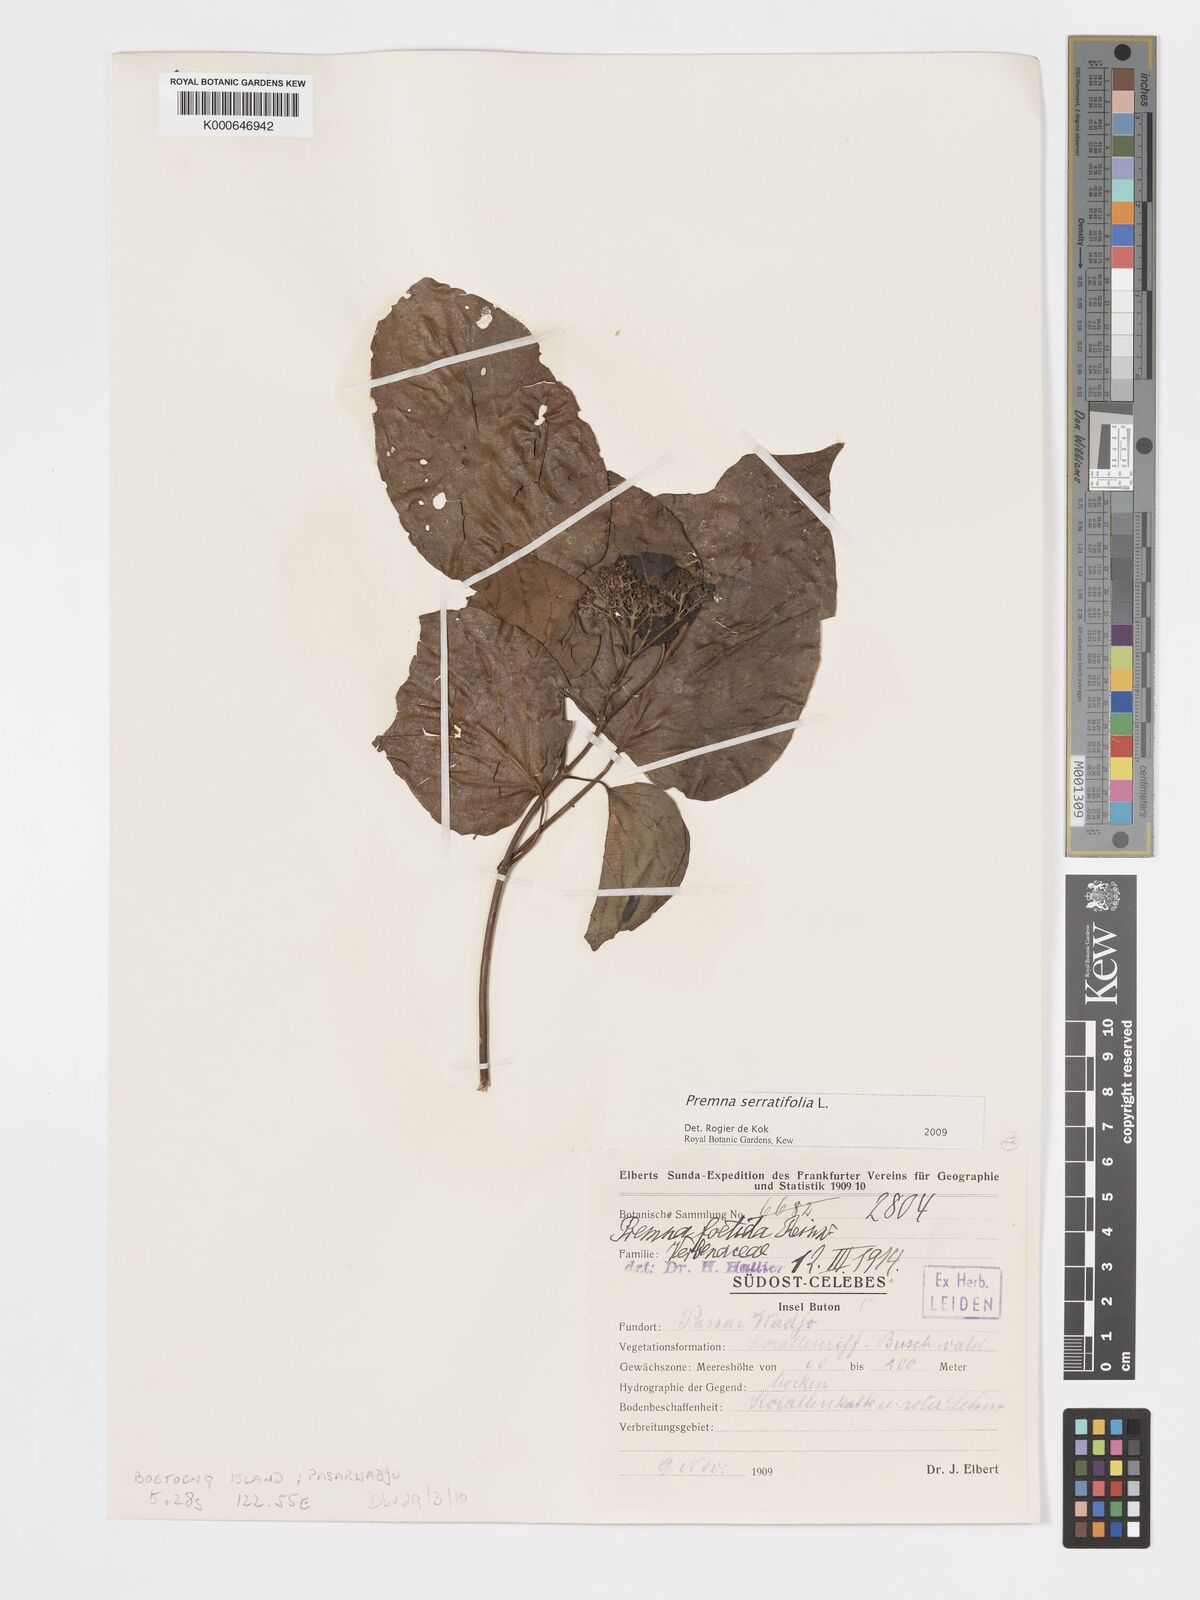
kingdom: Plantae
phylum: Tracheophyta
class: Magnoliopsida
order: Lamiales
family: Lamiaceae
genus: Premna
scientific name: Premna serratifolia
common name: Bastard guelder
